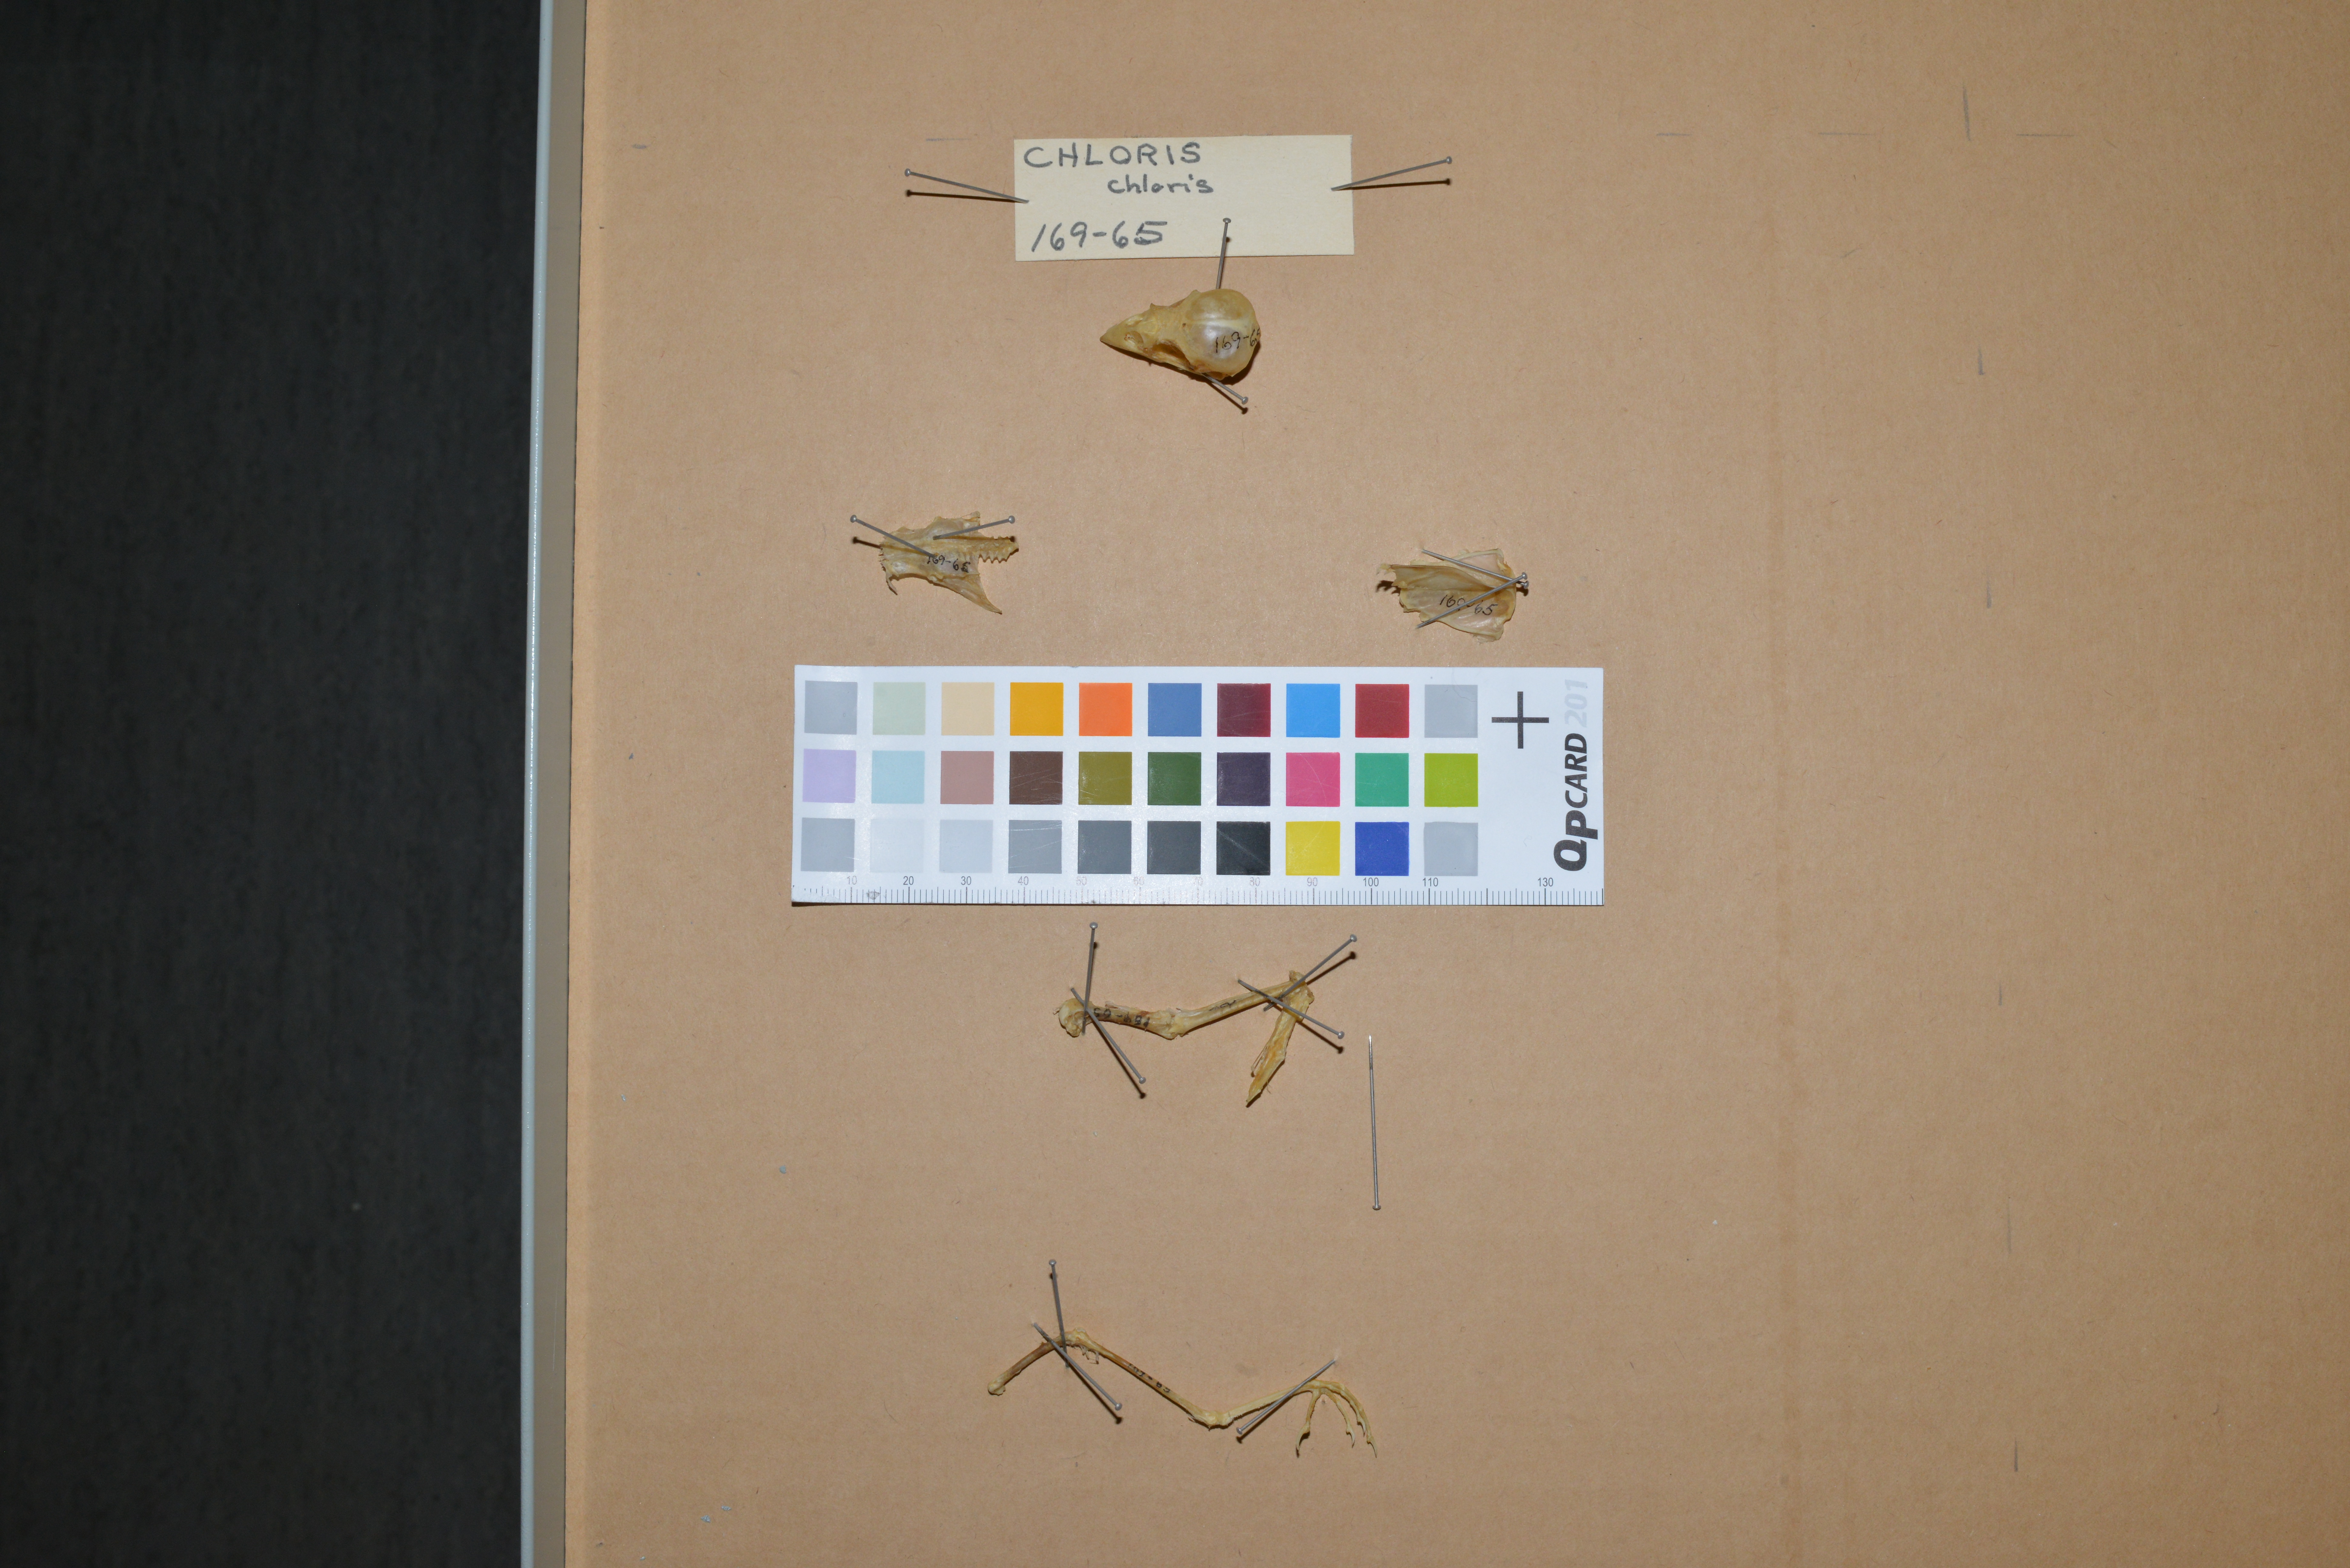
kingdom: Plantae
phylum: Tracheophyta
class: Liliopsida
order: Poales
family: Poaceae
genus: Chloris
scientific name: Chloris chloris
